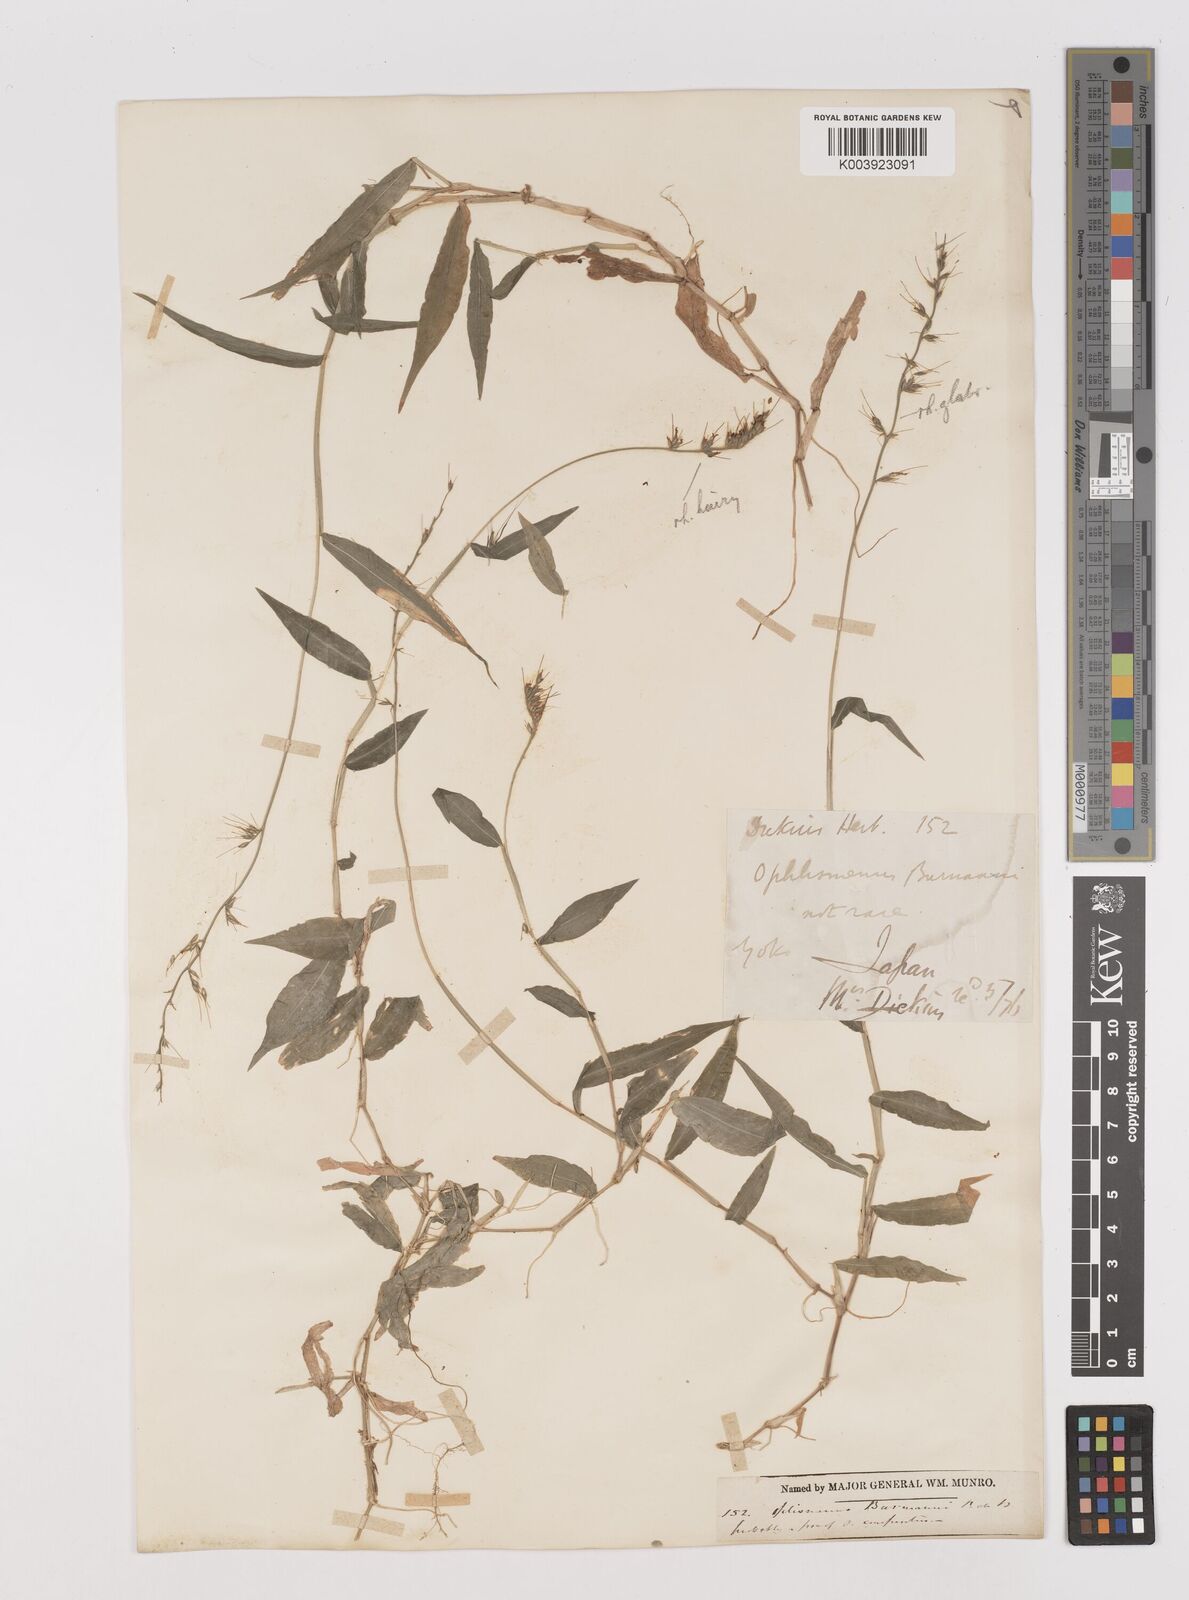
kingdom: Plantae
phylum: Tracheophyta
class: Liliopsida
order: Poales
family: Poaceae
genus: Oplismenus
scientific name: Oplismenus undulatifolius
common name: Wavyleaf basketgrass
